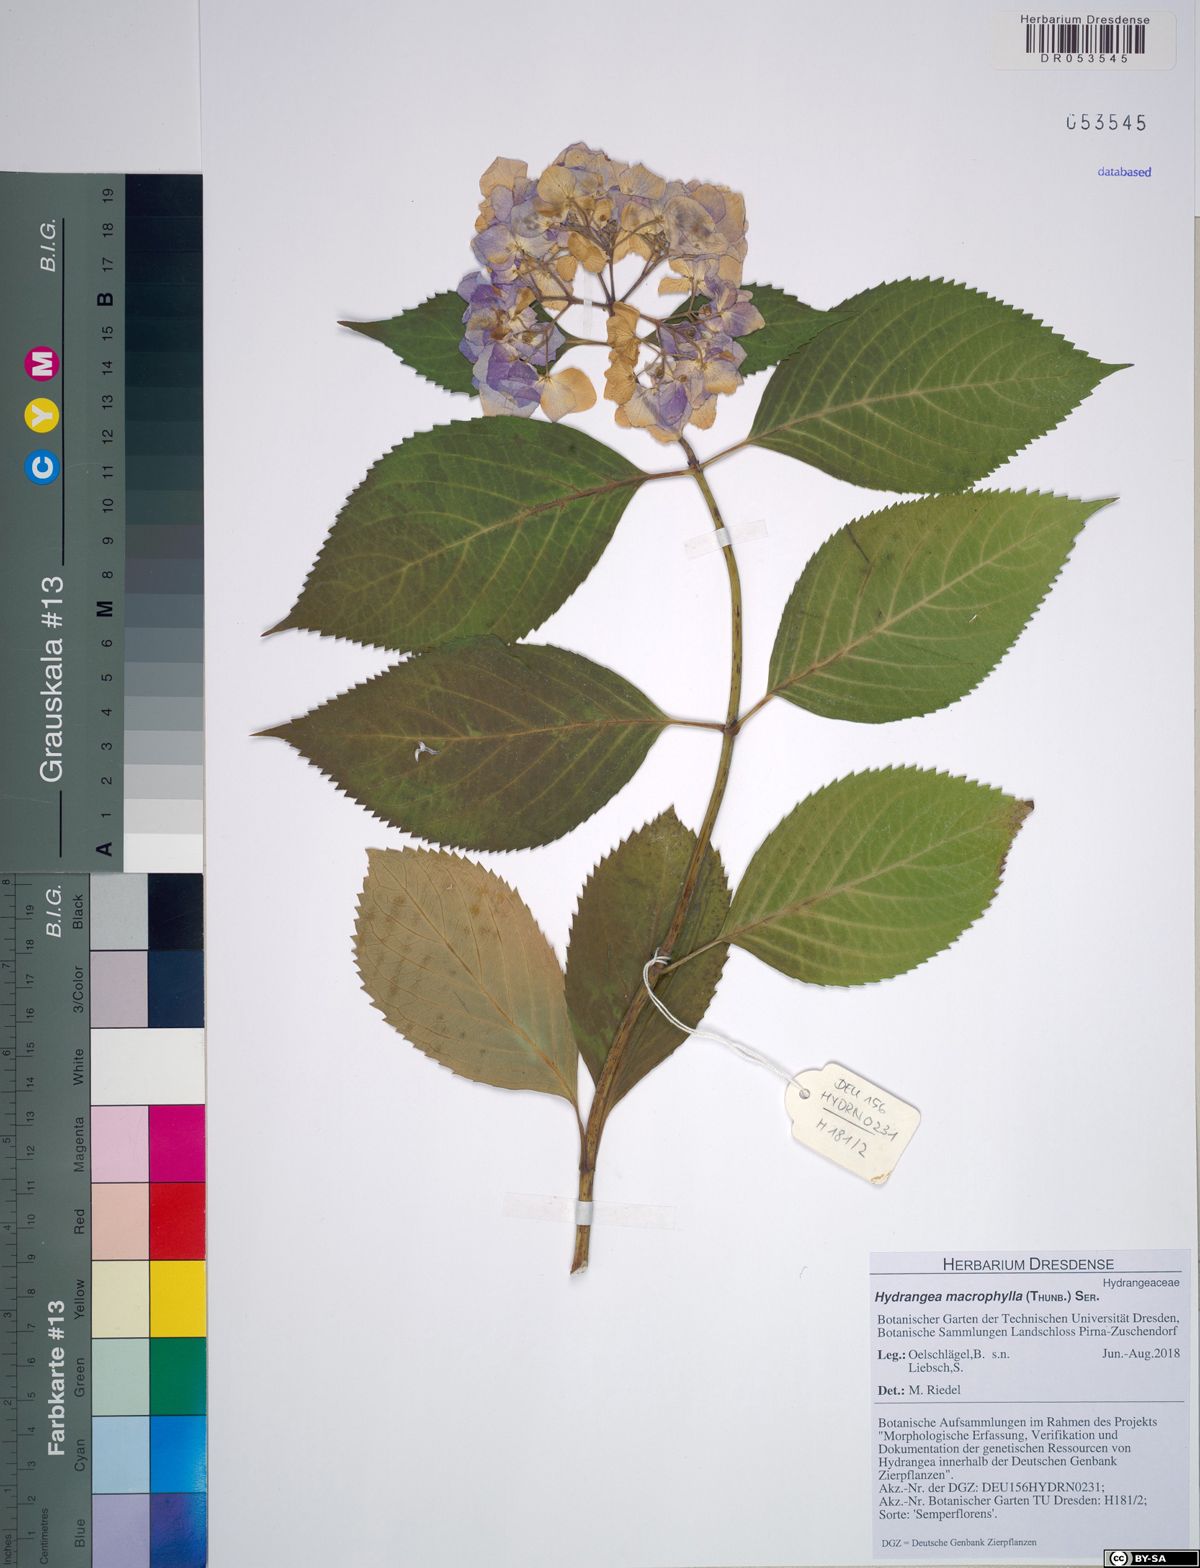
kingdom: Plantae
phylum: Tracheophyta
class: Magnoliopsida
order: Cornales
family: Hydrangeaceae
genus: Hydrangea
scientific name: Hydrangea macrophylla
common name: Hydrangea
